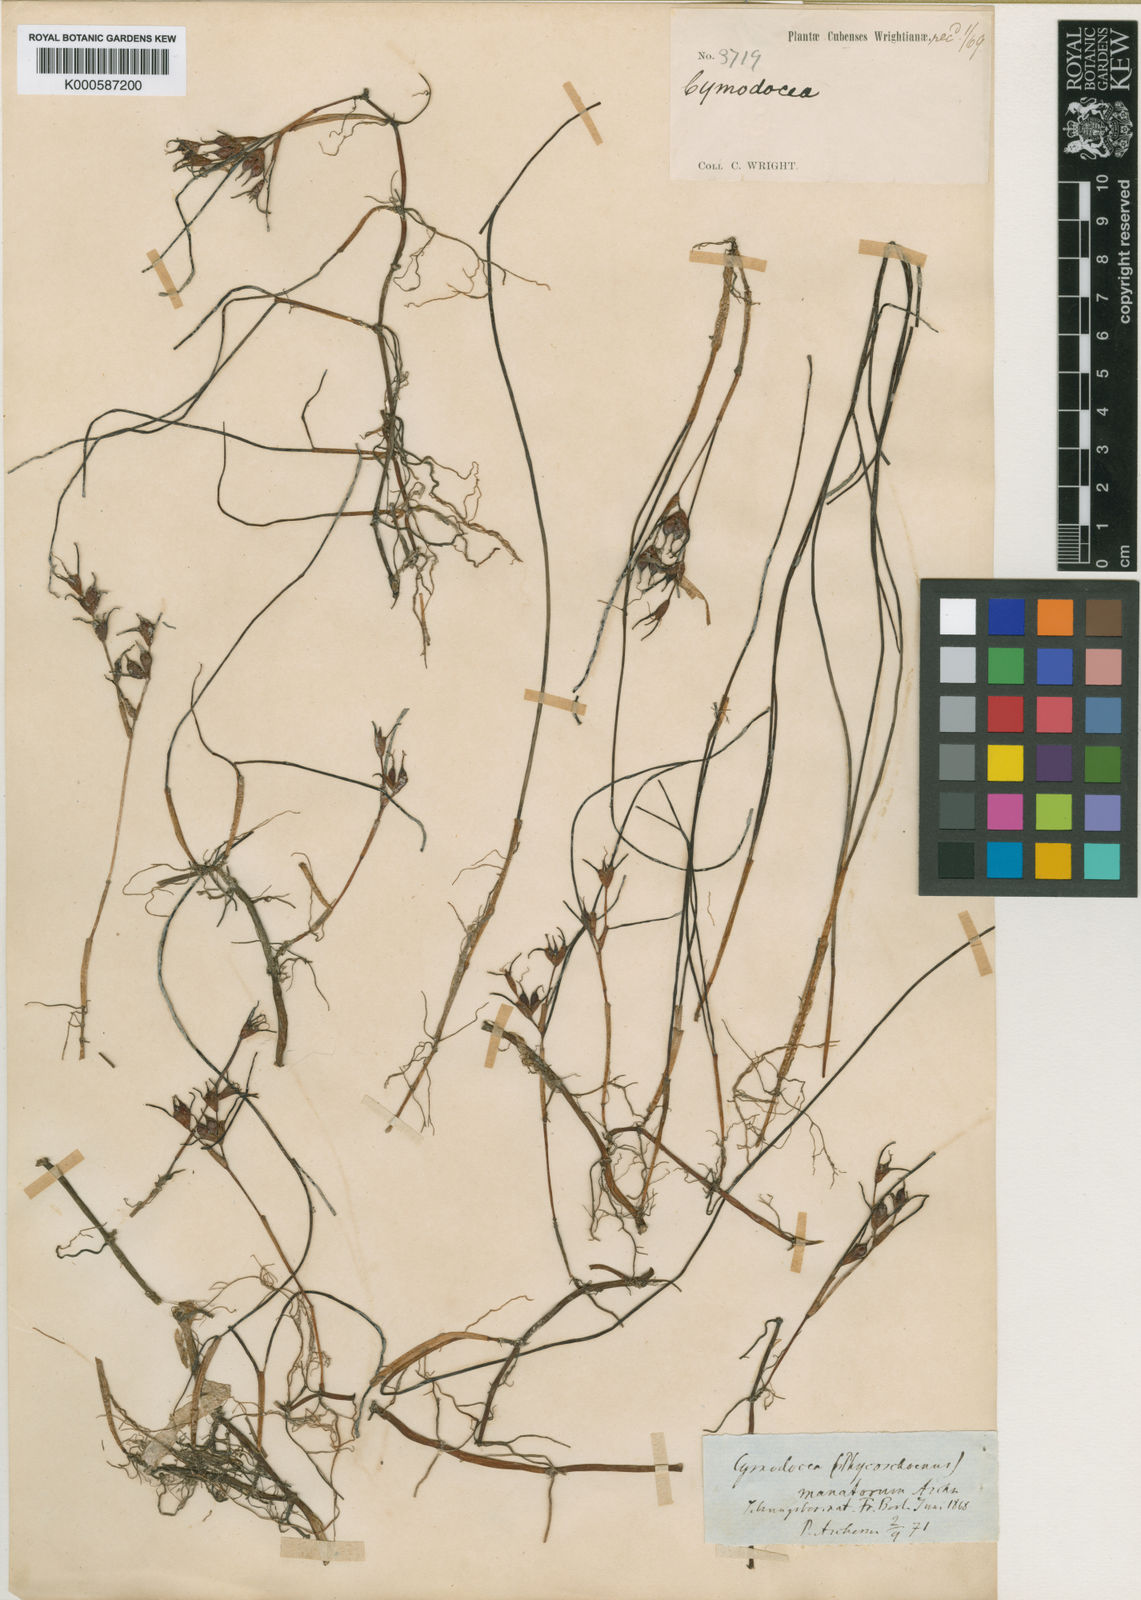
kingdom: Plantae
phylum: Tracheophyta
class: Liliopsida
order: Alismatales
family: Cymodoceaceae
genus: Syringodium
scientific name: Syringodium
